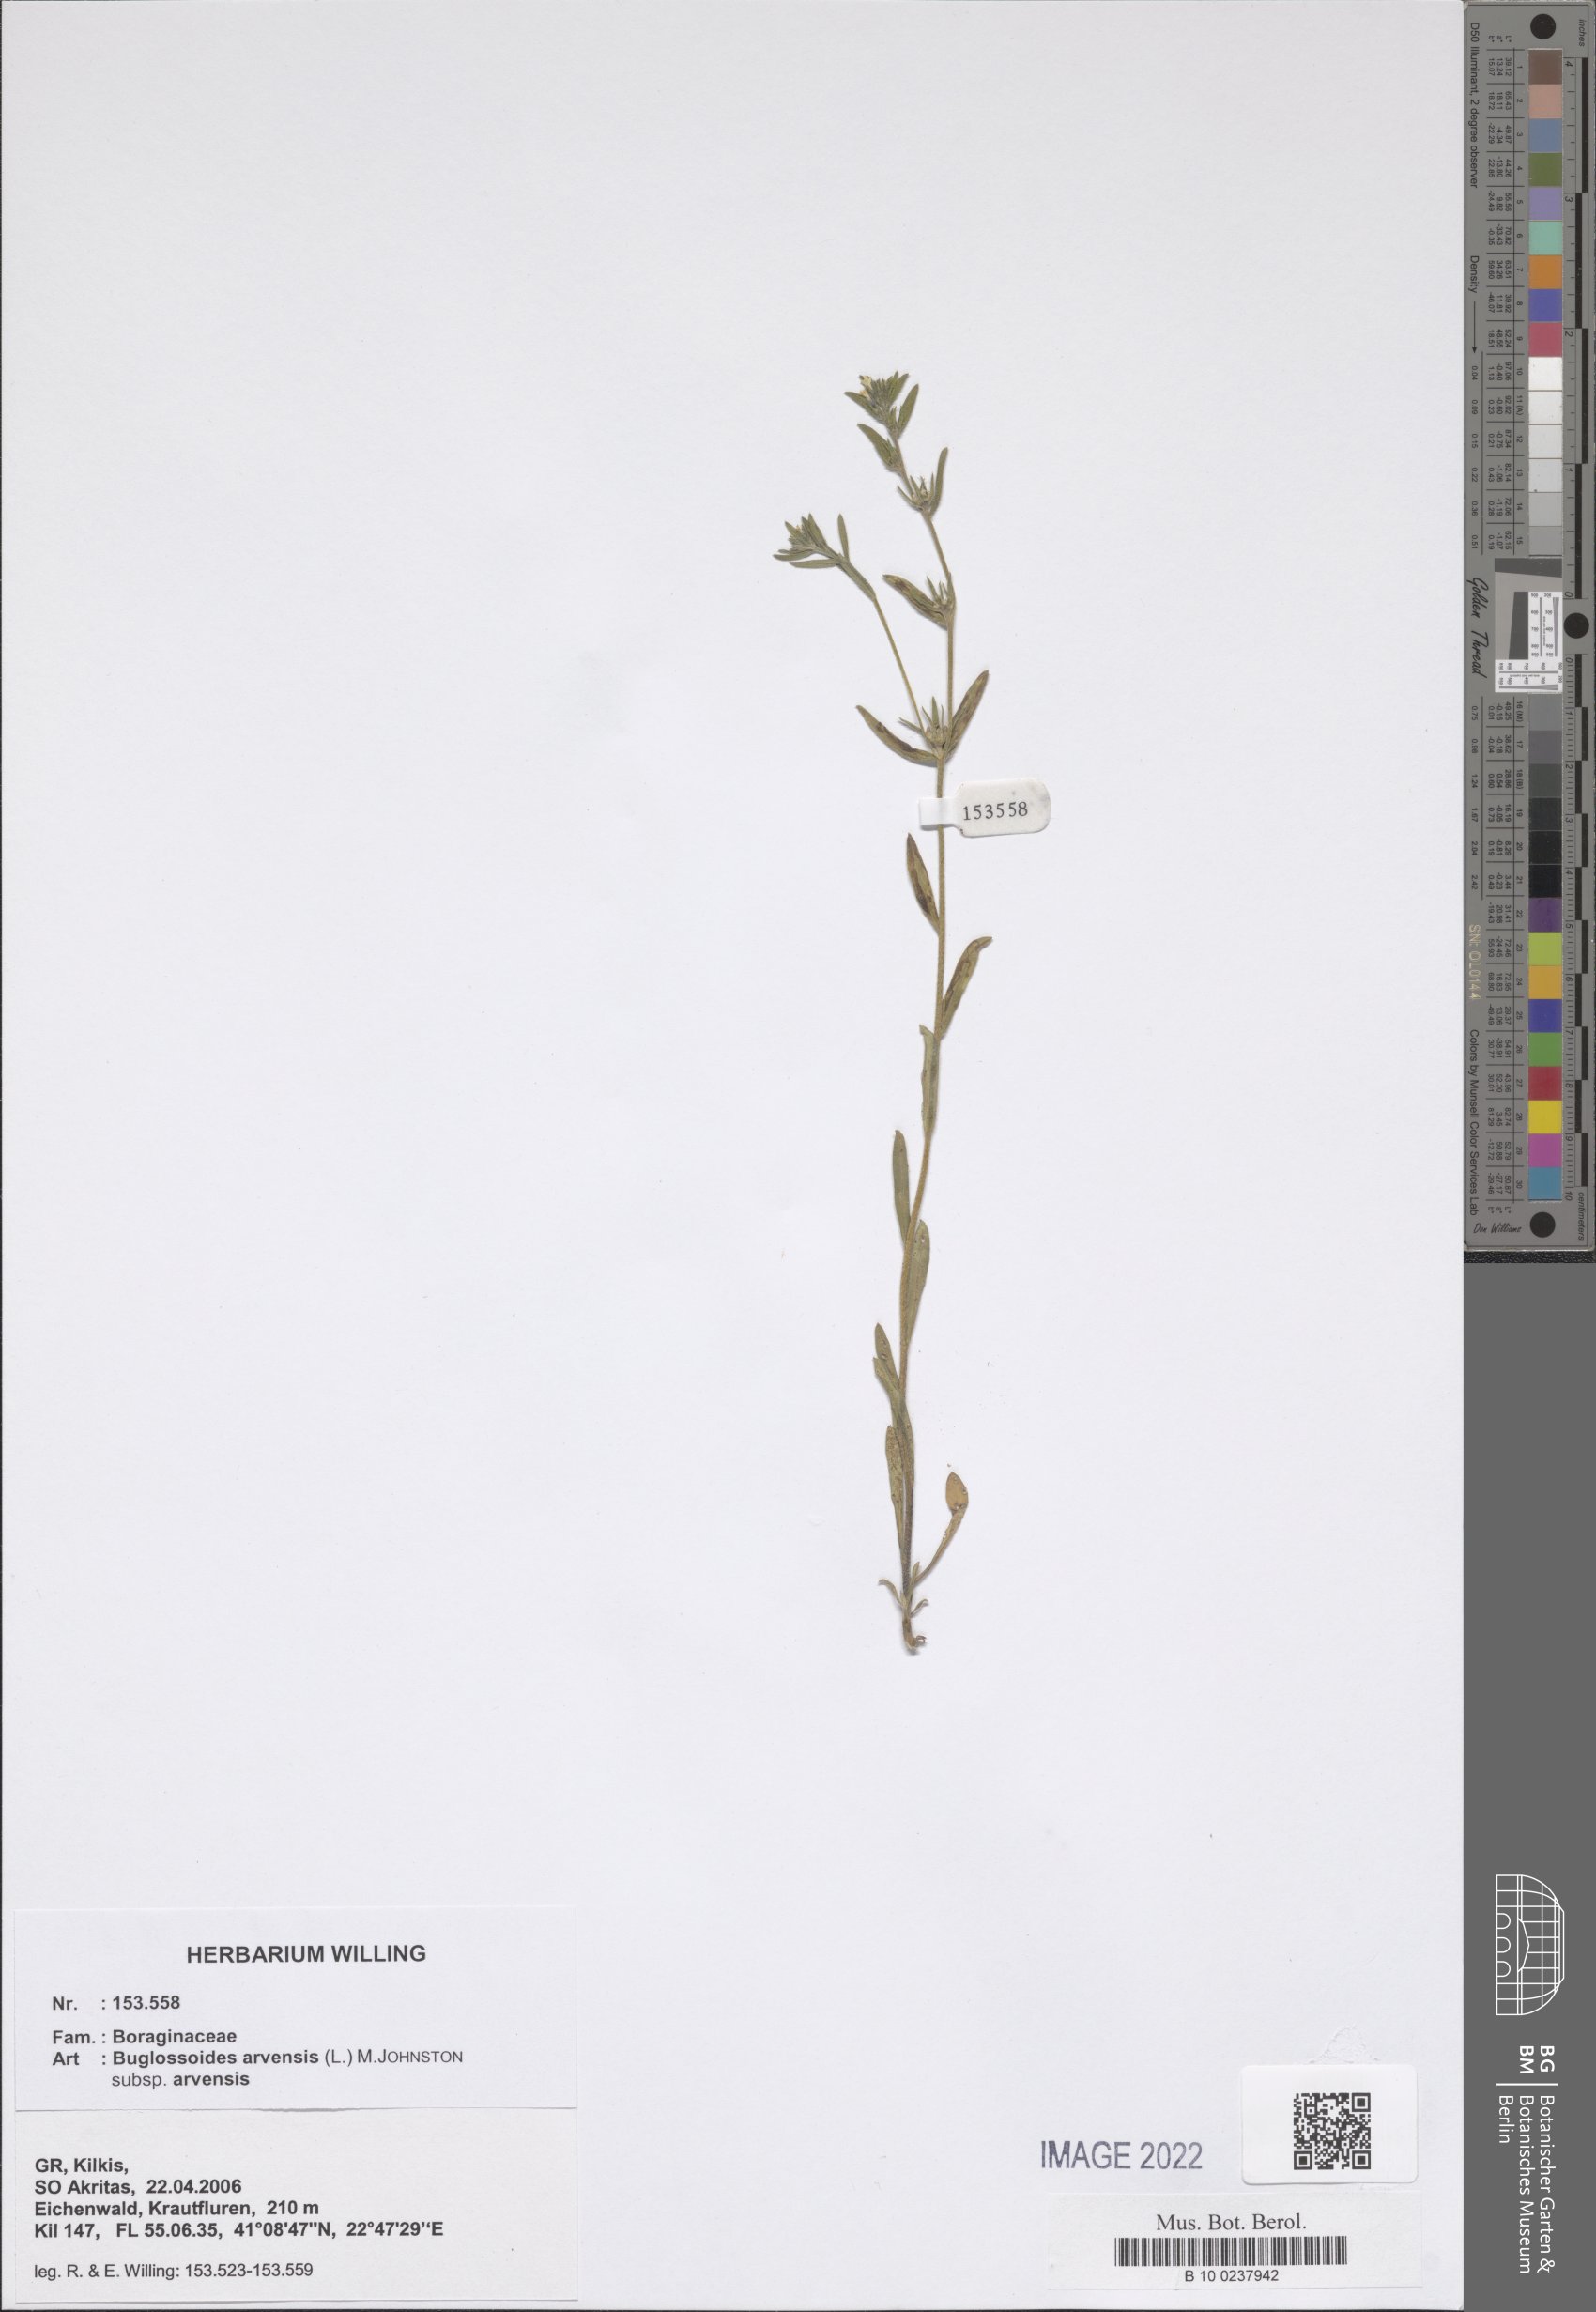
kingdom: Plantae
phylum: Tracheophyta
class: Magnoliopsida
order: Boraginales
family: Boraginaceae
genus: Buglossoides
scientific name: Buglossoides arvensis
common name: Corn gromwell
